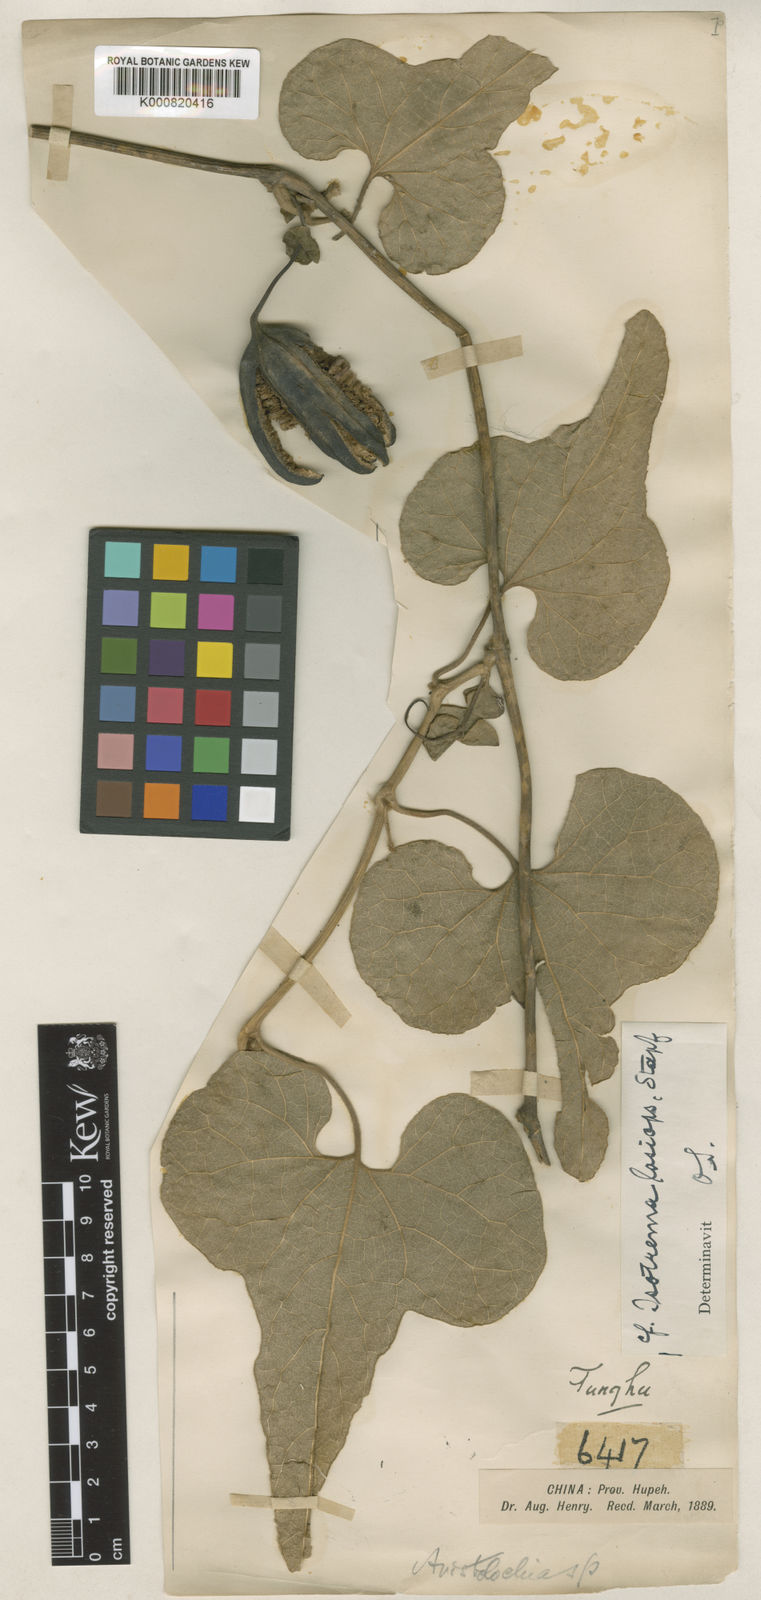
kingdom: Plantae
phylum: Tracheophyta
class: Magnoliopsida
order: Piperales
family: Aristolochiaceae
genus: Isotrema
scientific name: Isotrema kaempferi
